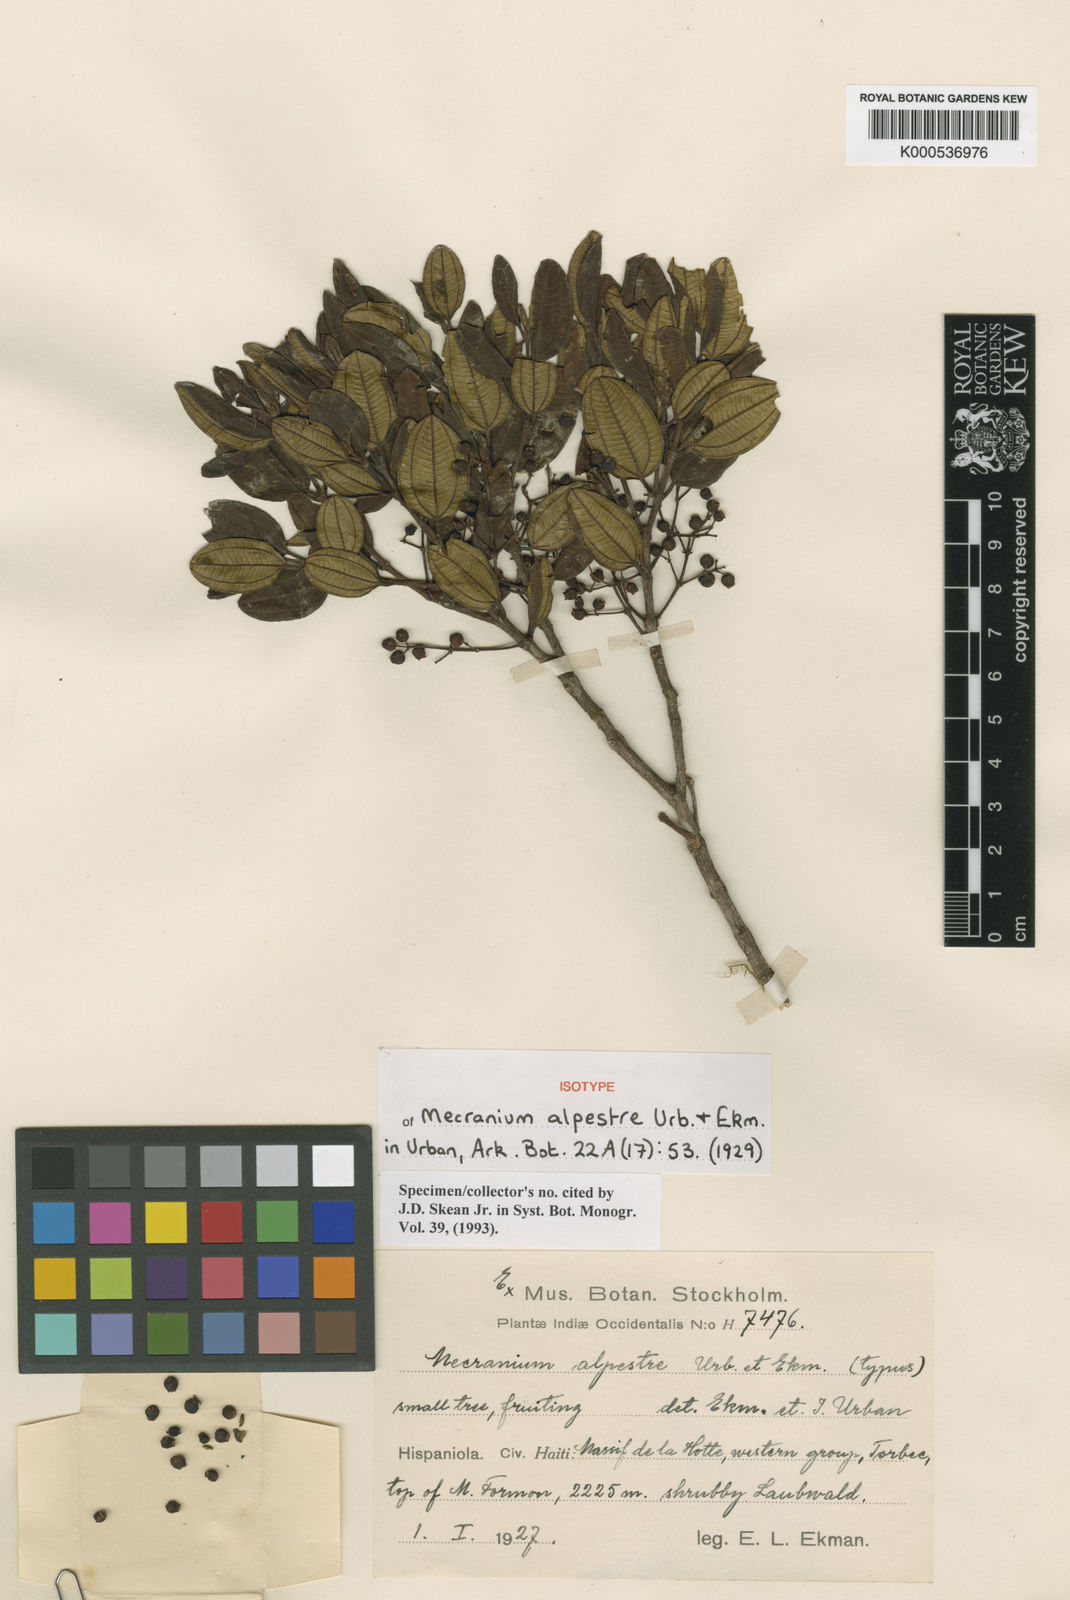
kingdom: Plantae
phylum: Tracheophyta
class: Magnoliopsida
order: Myrtales
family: Melastomataceae
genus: Miconia
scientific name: Miconia rufoalpestris
